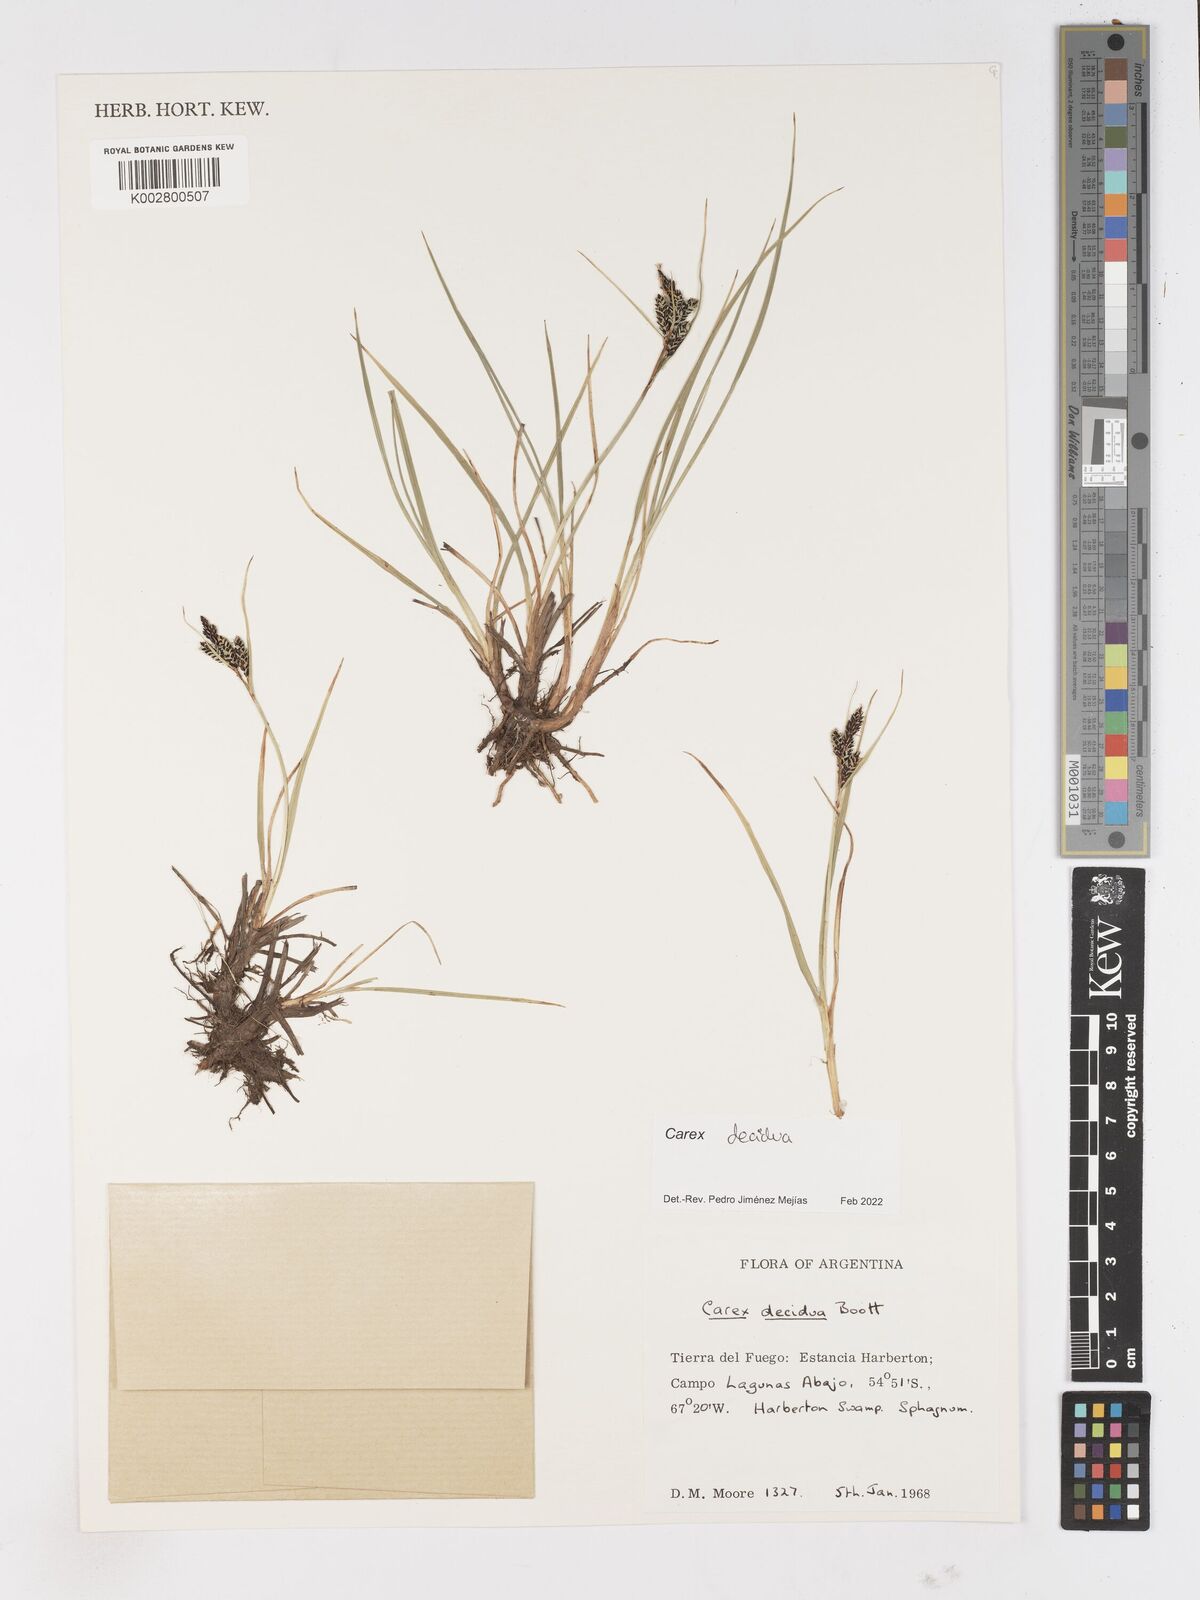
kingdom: Plantae
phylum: Tracheophyta
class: Liliopsida
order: Poales
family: Cyperaceae
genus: Carex
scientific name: Carex decidua
